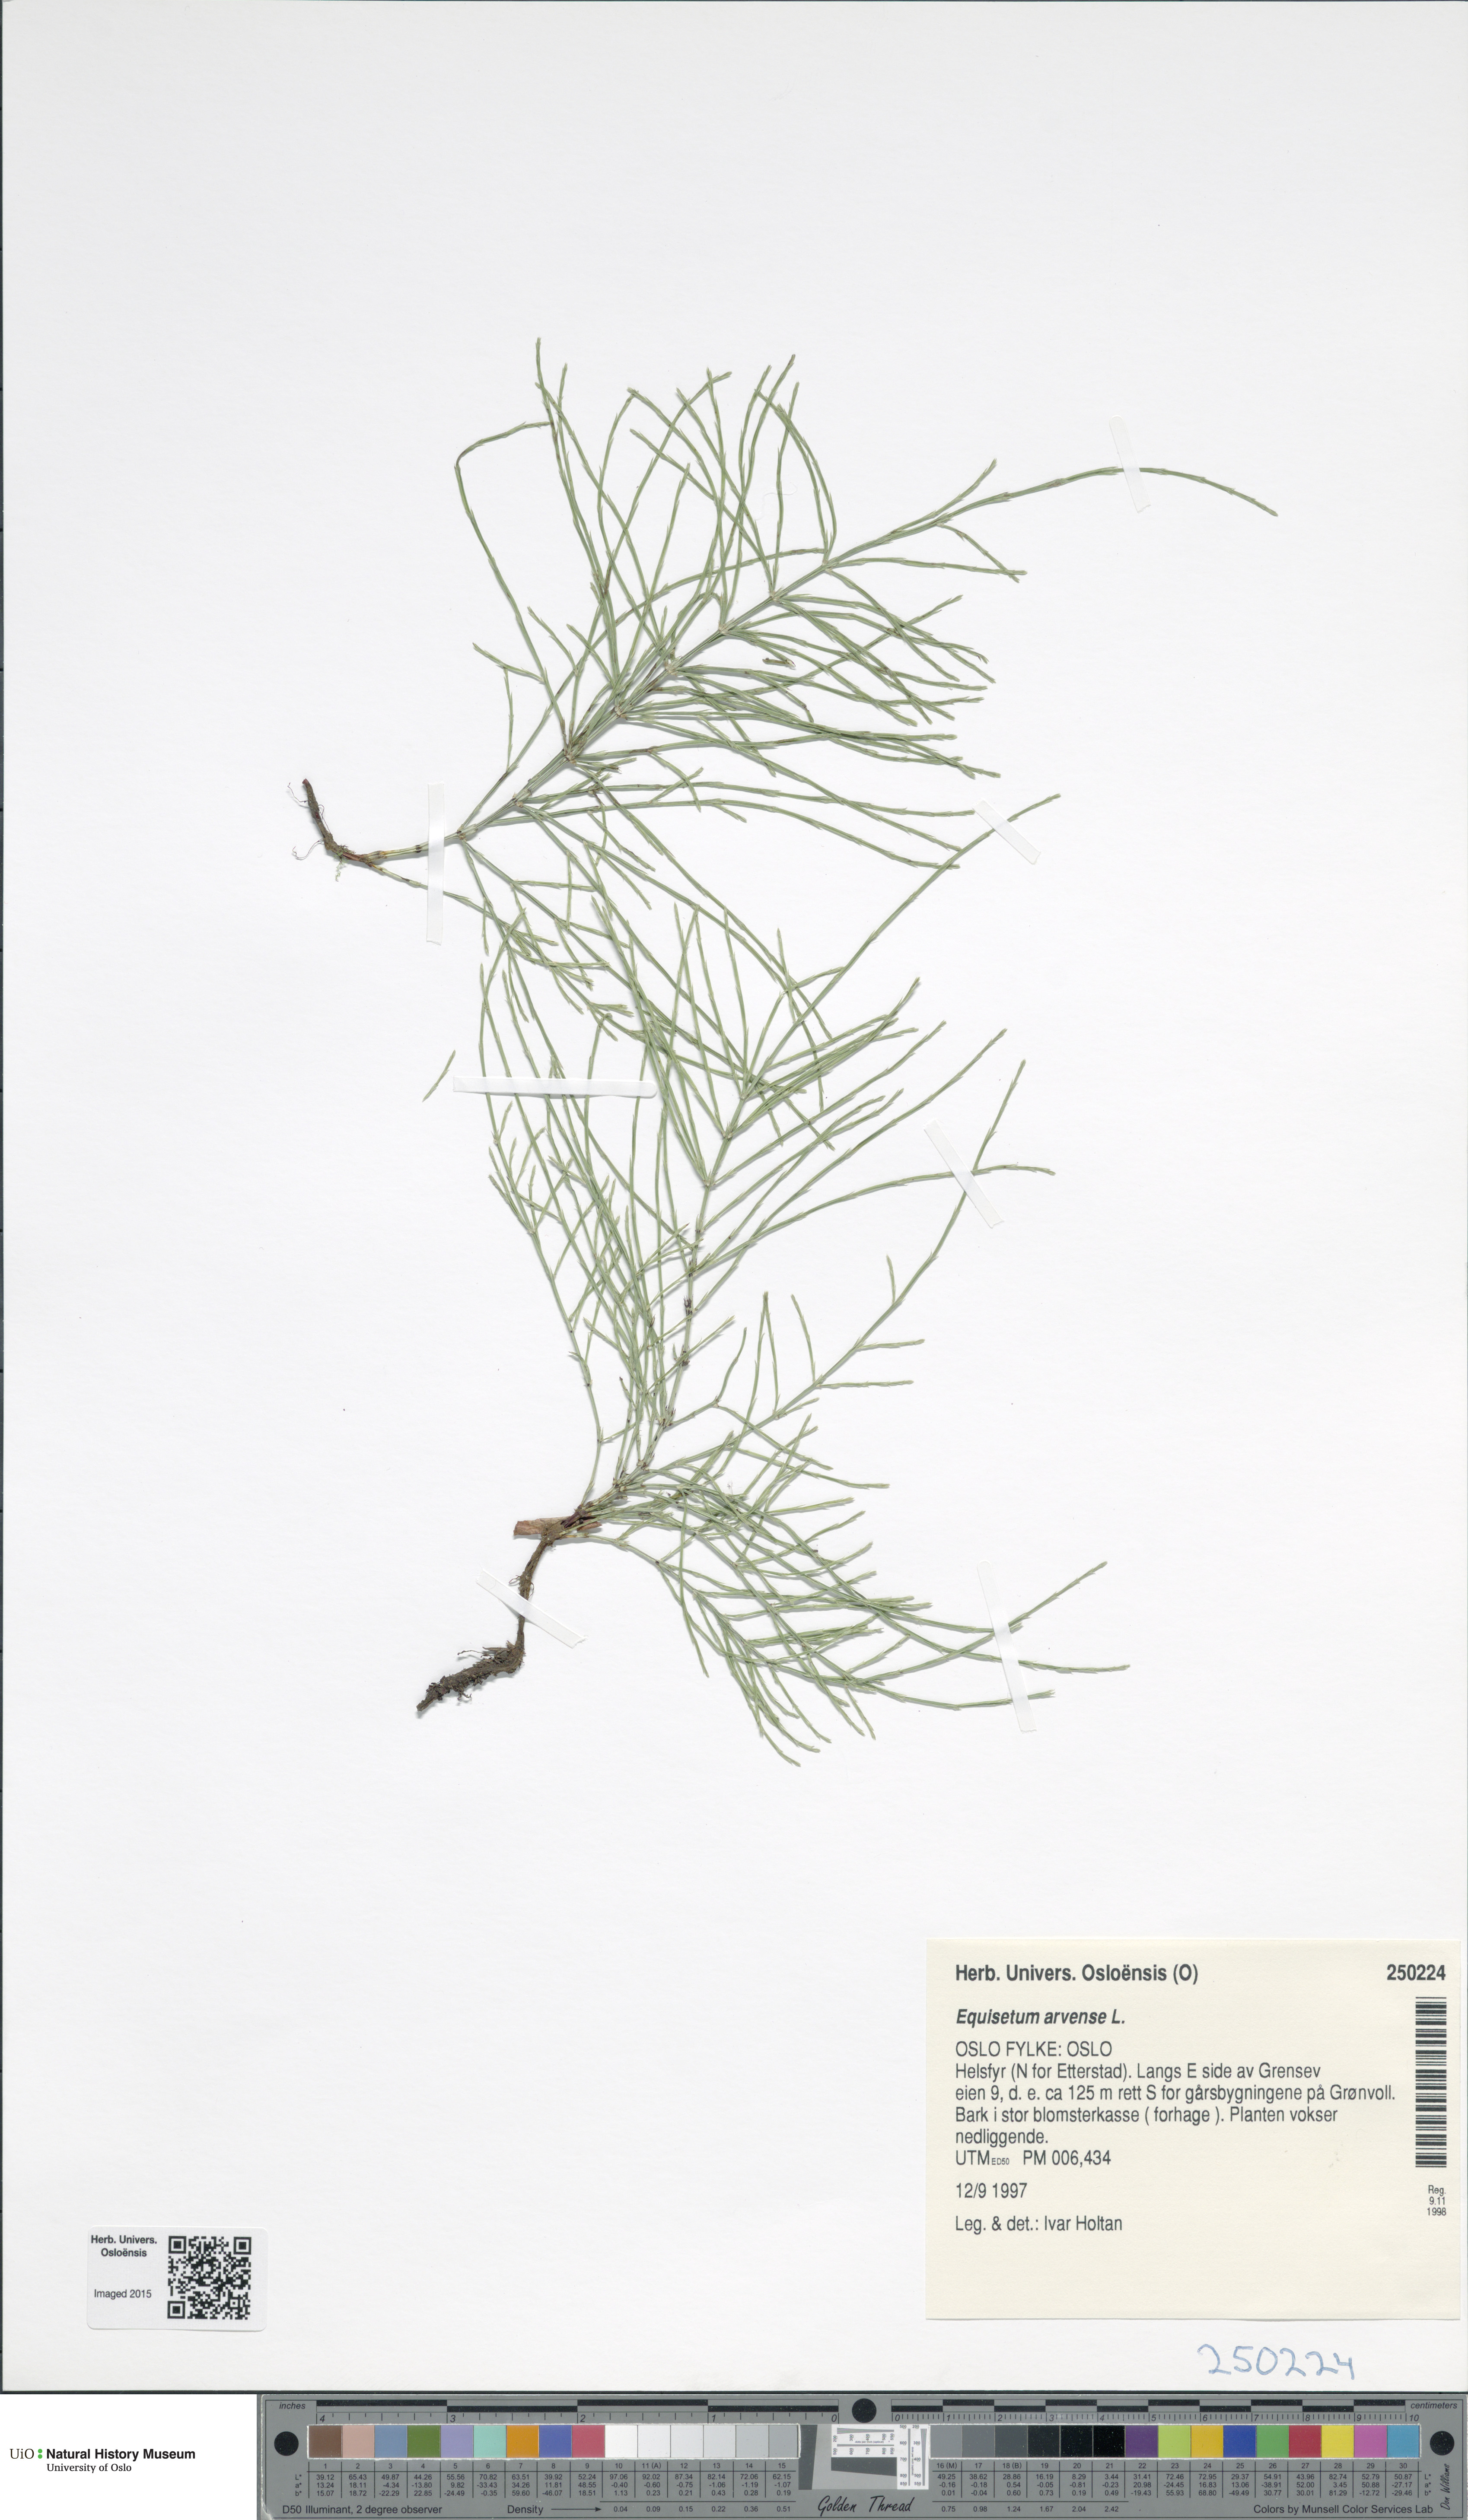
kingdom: Plantae
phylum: Tracheophyta
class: Polypodiopsida
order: Equisetales
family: Equisetaceae
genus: Equisetum
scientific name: Equisetum arvense
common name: Field horsetail
